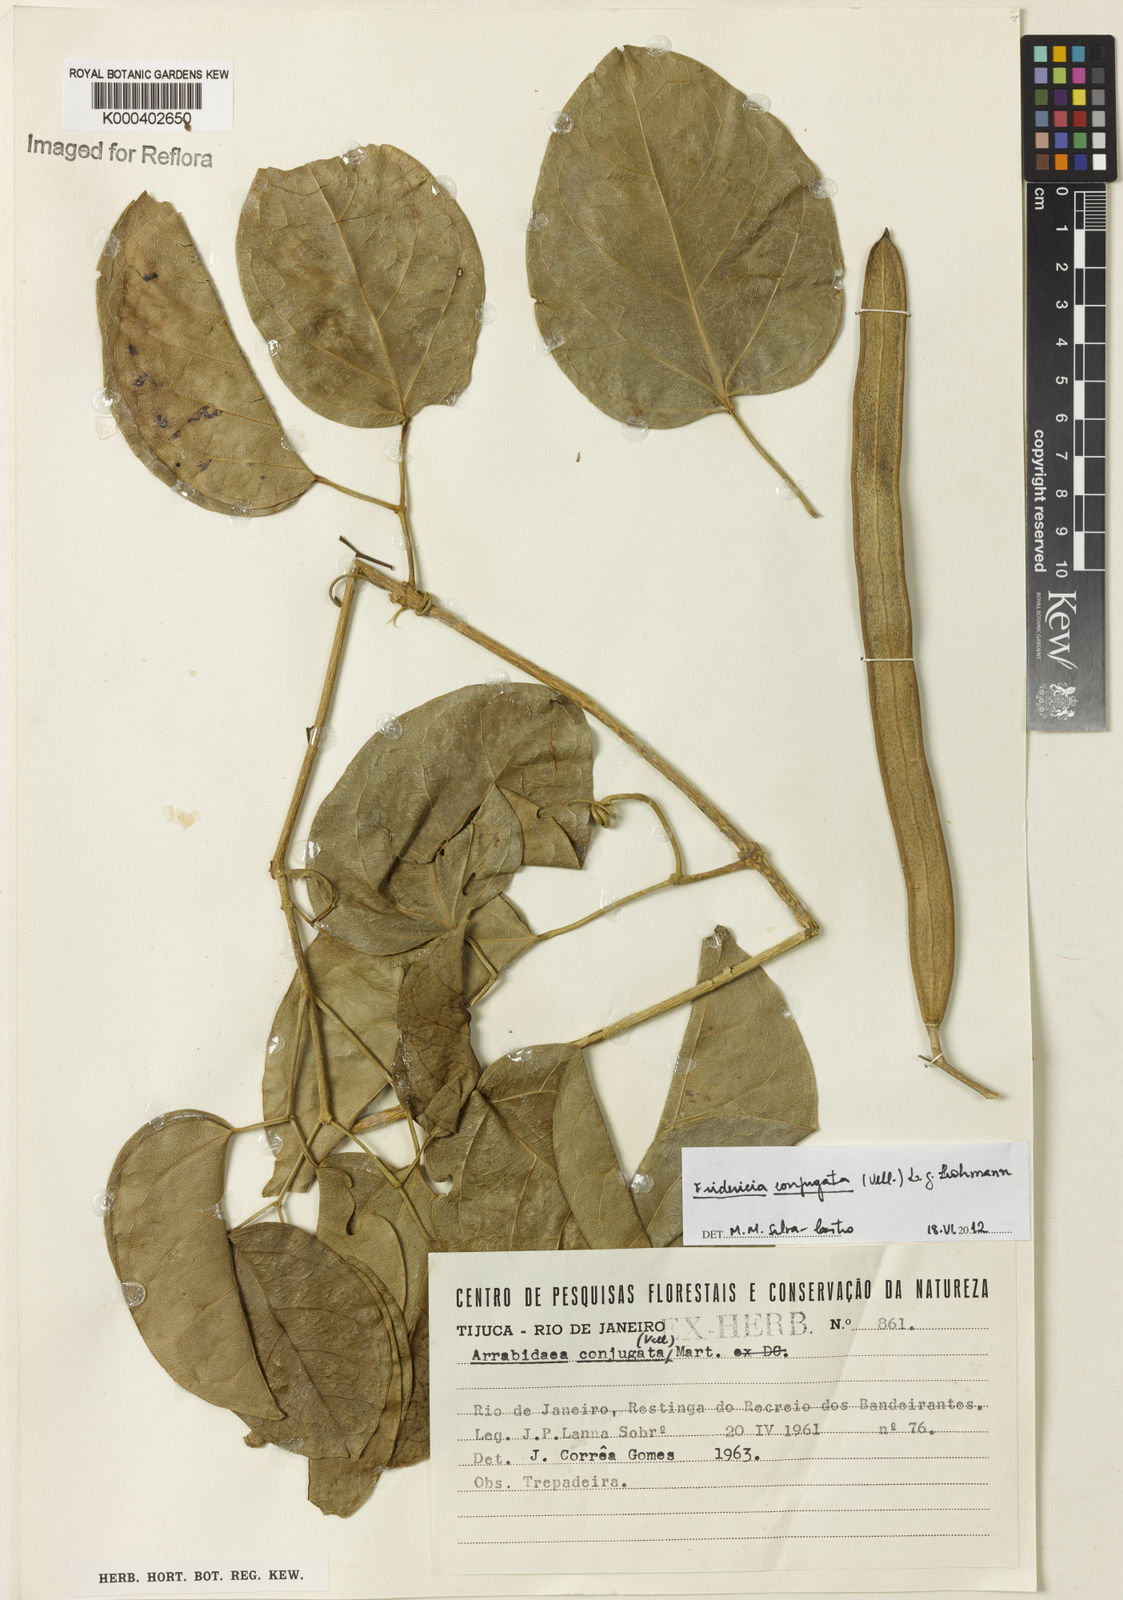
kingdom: Plantae
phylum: Tracheophyta
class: Magnoliopsida
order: Lamiales
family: Bignoniaceae
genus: Fridericia
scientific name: Fridericia conjugata
